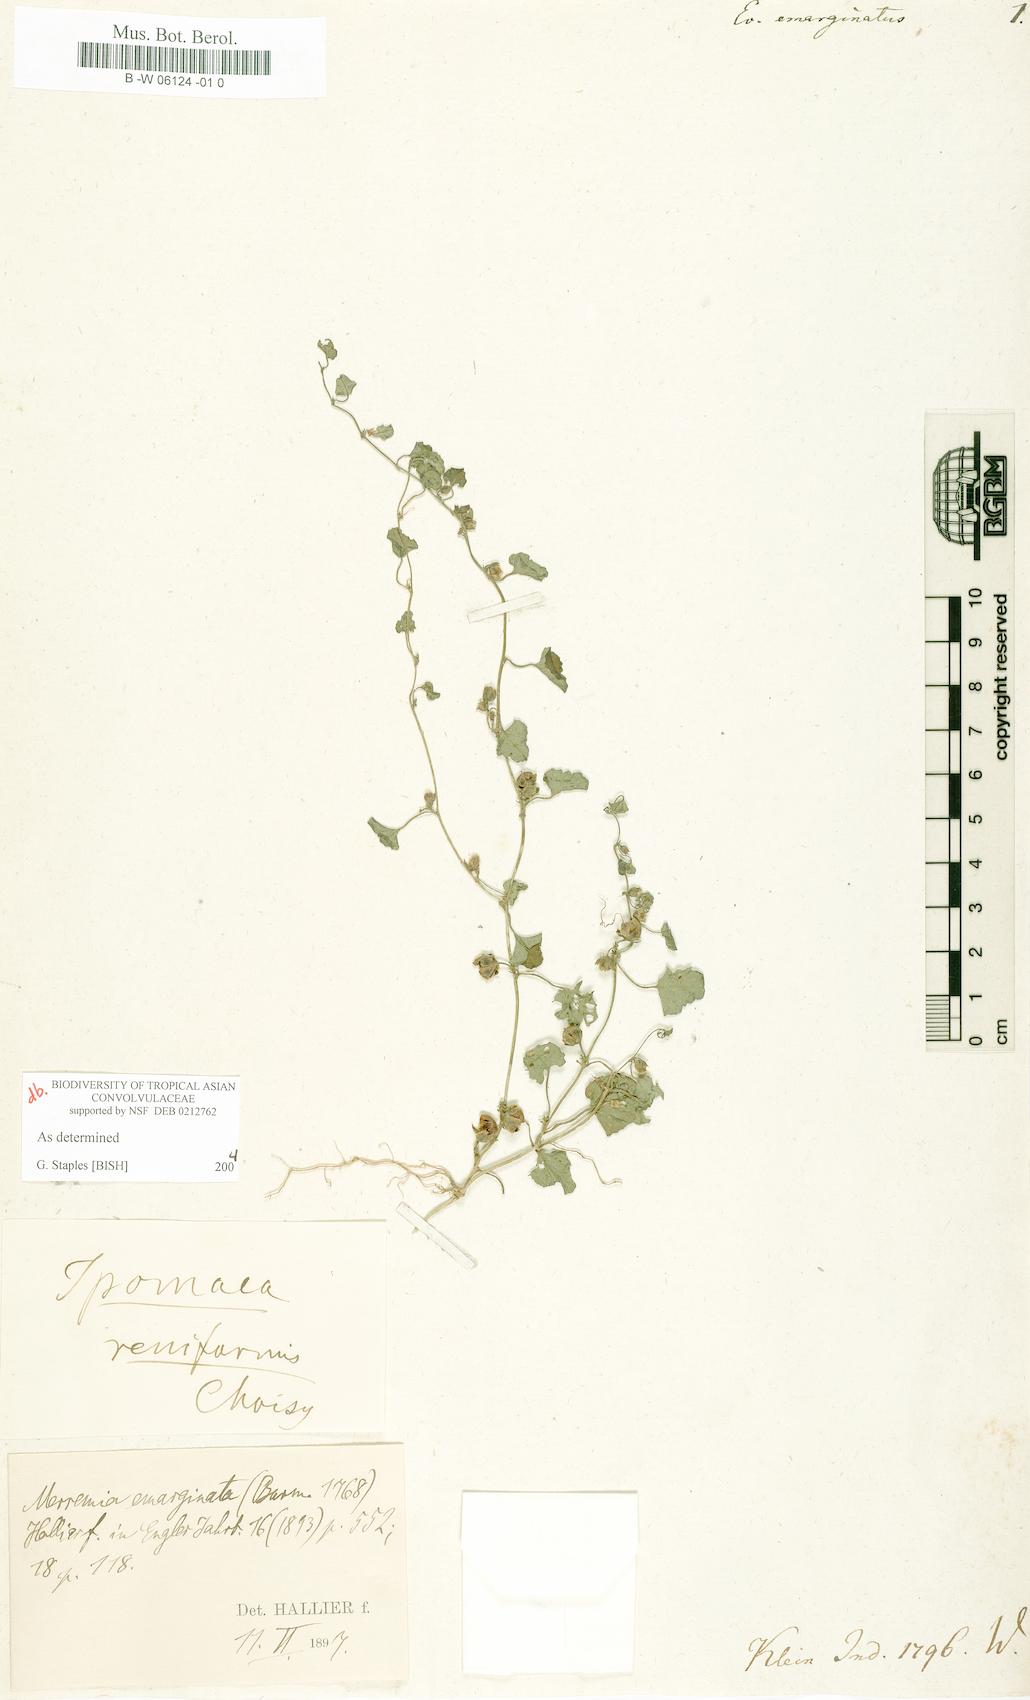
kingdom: Plantae
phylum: Tracheophyta
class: Magnoliopsida
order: Solanales
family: Convolvulaceae
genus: Evolvulus
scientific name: Evolvulus emarginatus
